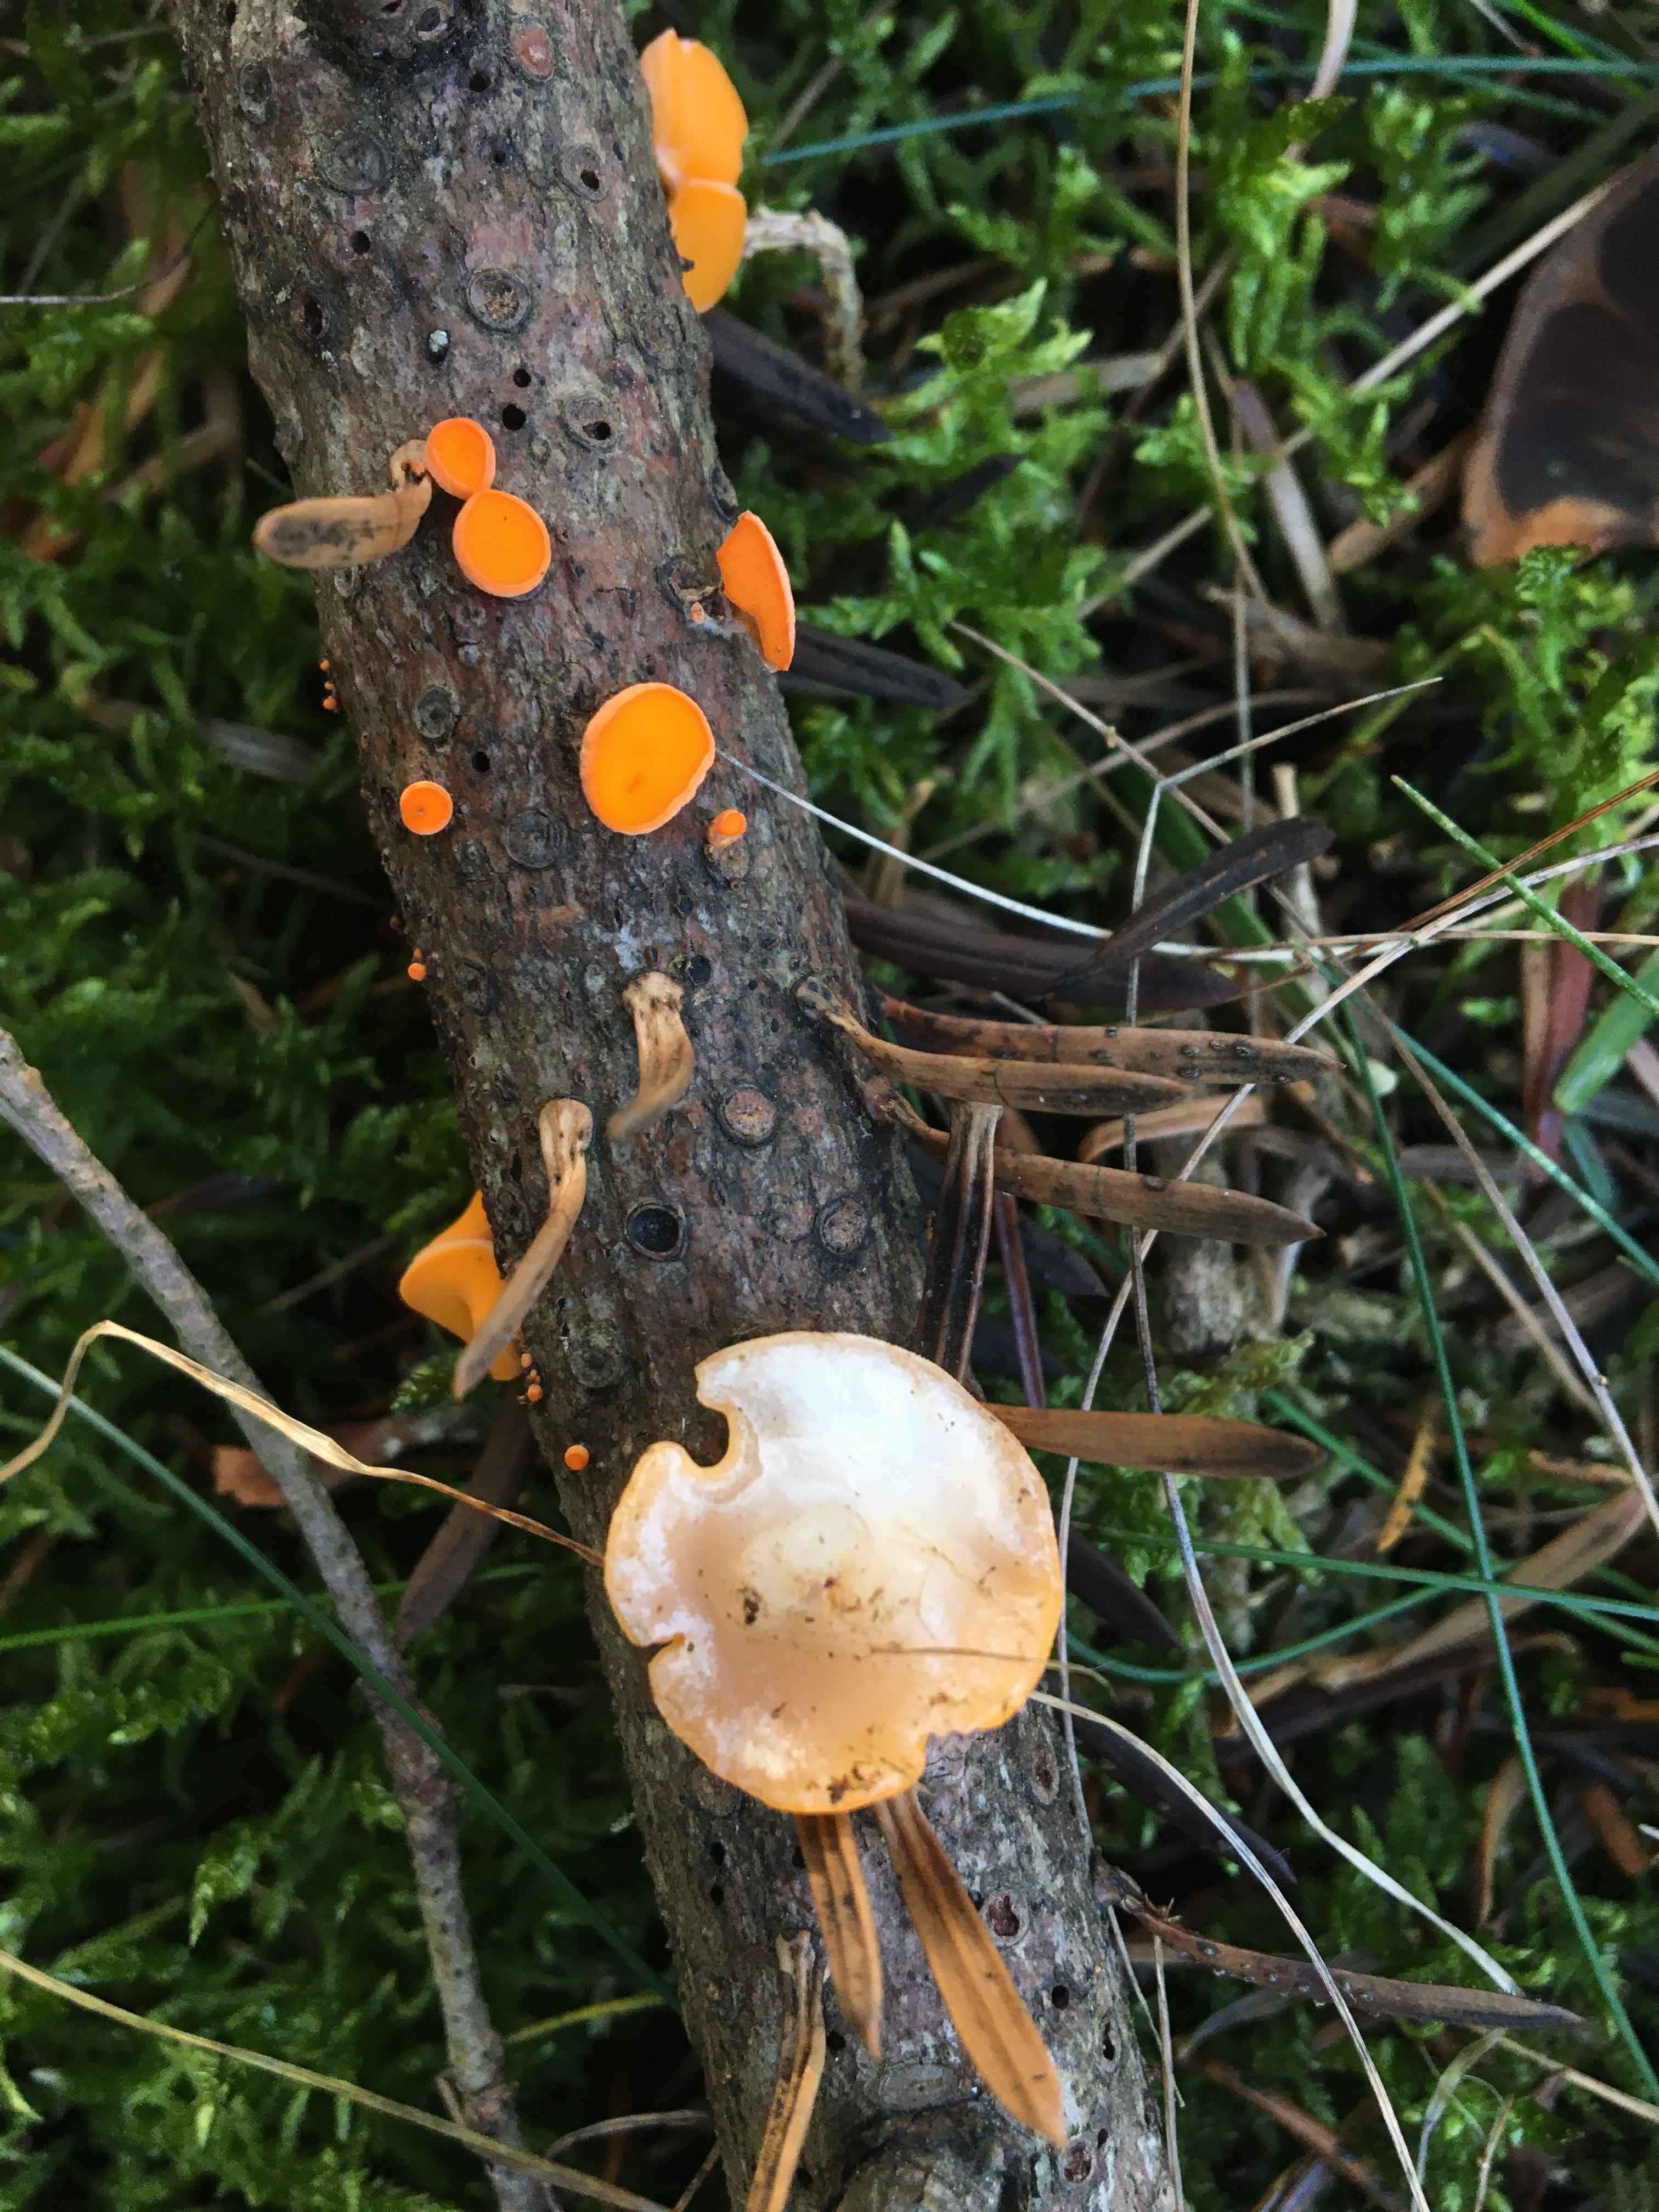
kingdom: Fungi
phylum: Ascomycota
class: Pezizomycetes
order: Pezizales
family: Sarcoscyphaceae
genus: Pithya
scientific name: Pithya vulgaris
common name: stor dukatbæger
